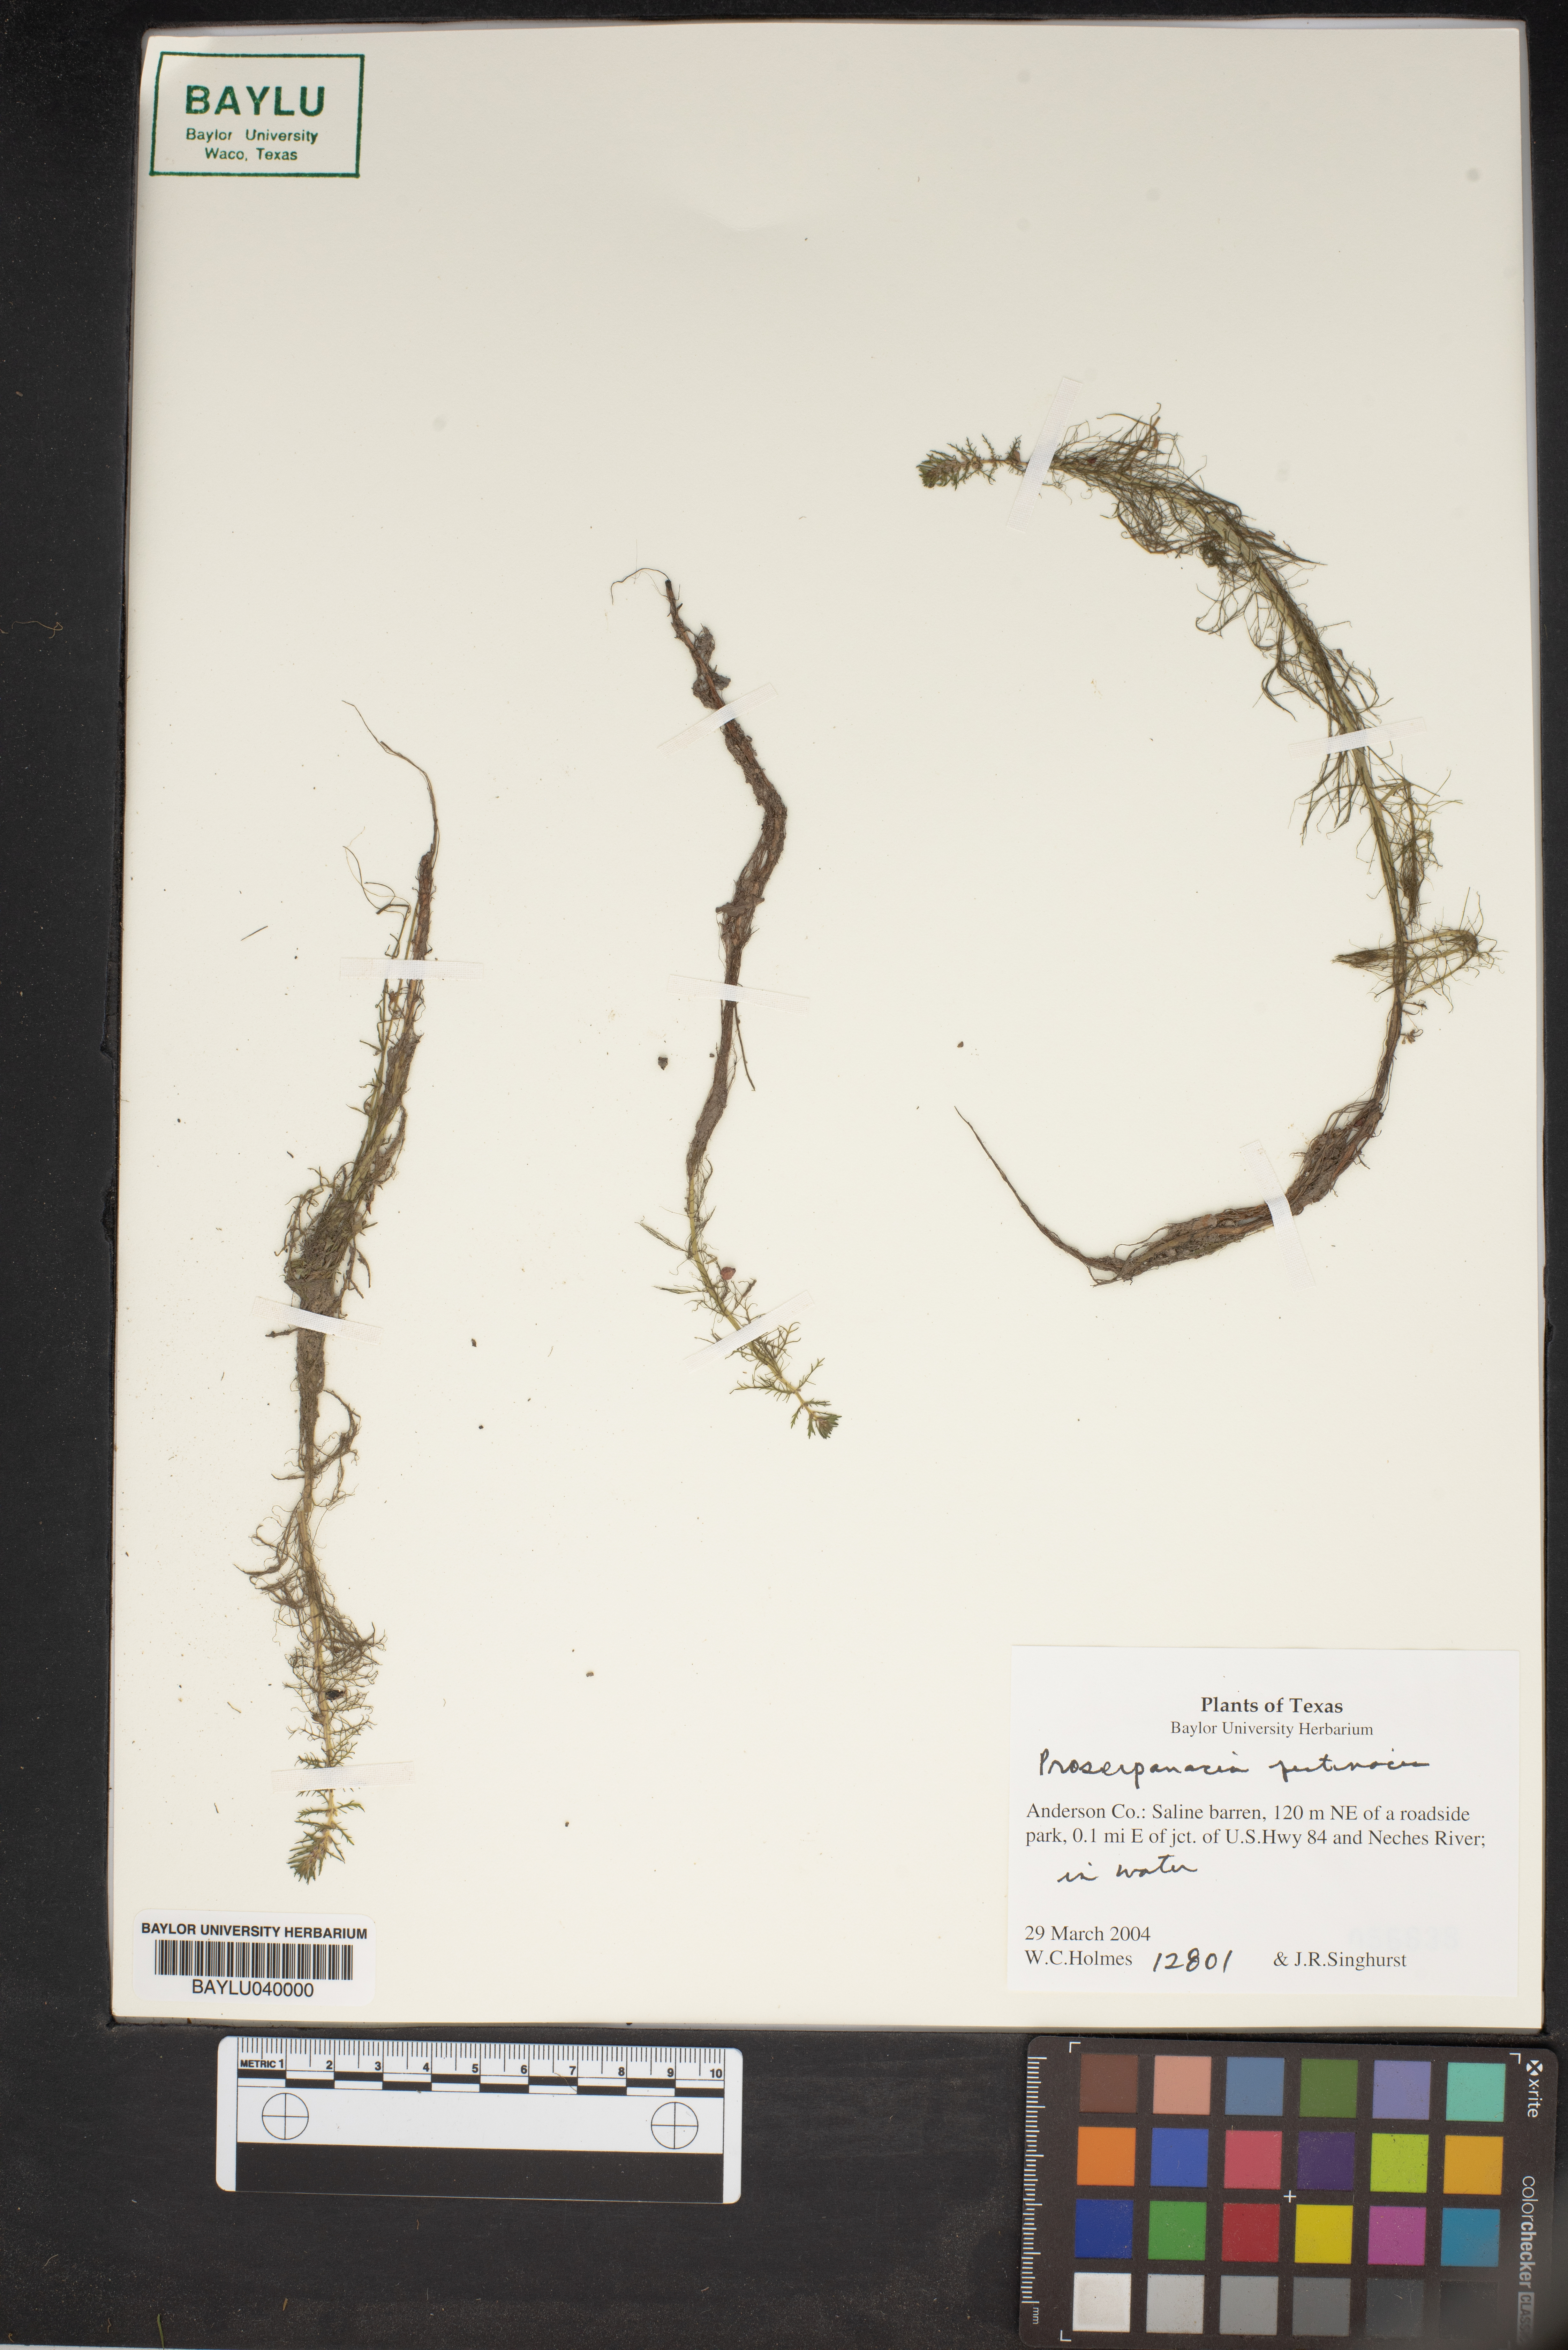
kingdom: Plantae
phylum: Tracheophyta
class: Magnoliopsida
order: Saxifragales
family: Haloragaceae
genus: Proserpinaca
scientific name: Proserpinaca pectinata
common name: Comb-leaved mermaidweed
